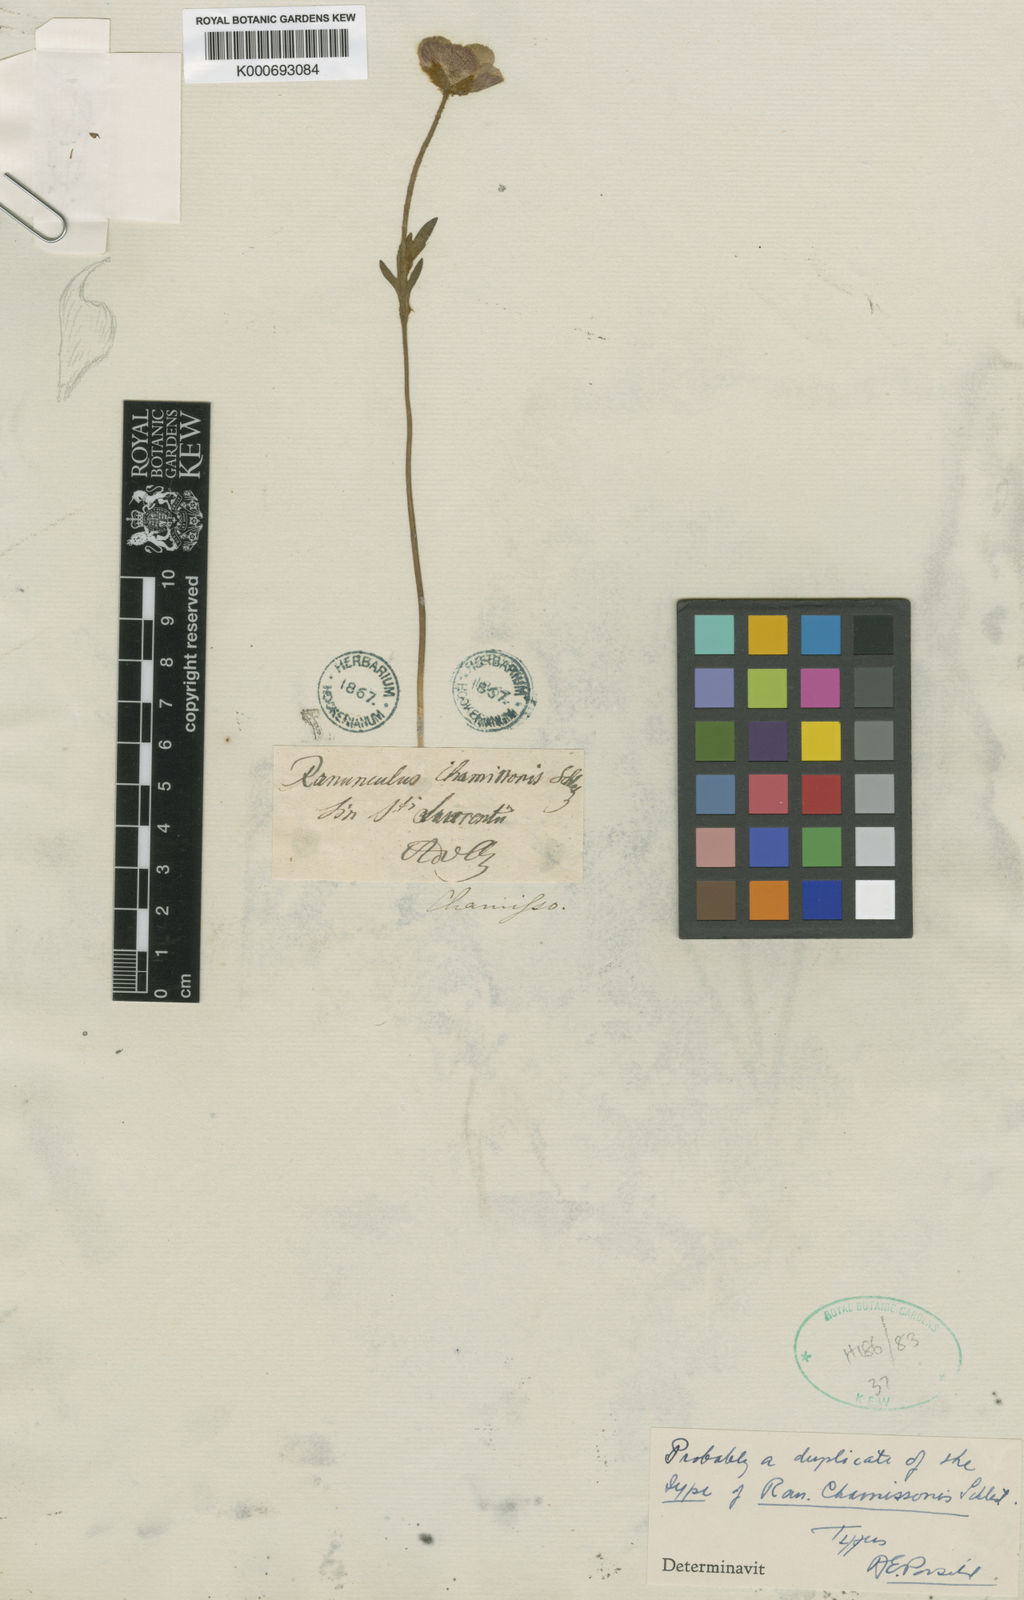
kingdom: Plantae
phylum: Tracheophyta
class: Magnoliopsida
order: Ranunculales
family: Ranunculaceae
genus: Ranunculus
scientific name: Ranunculus
